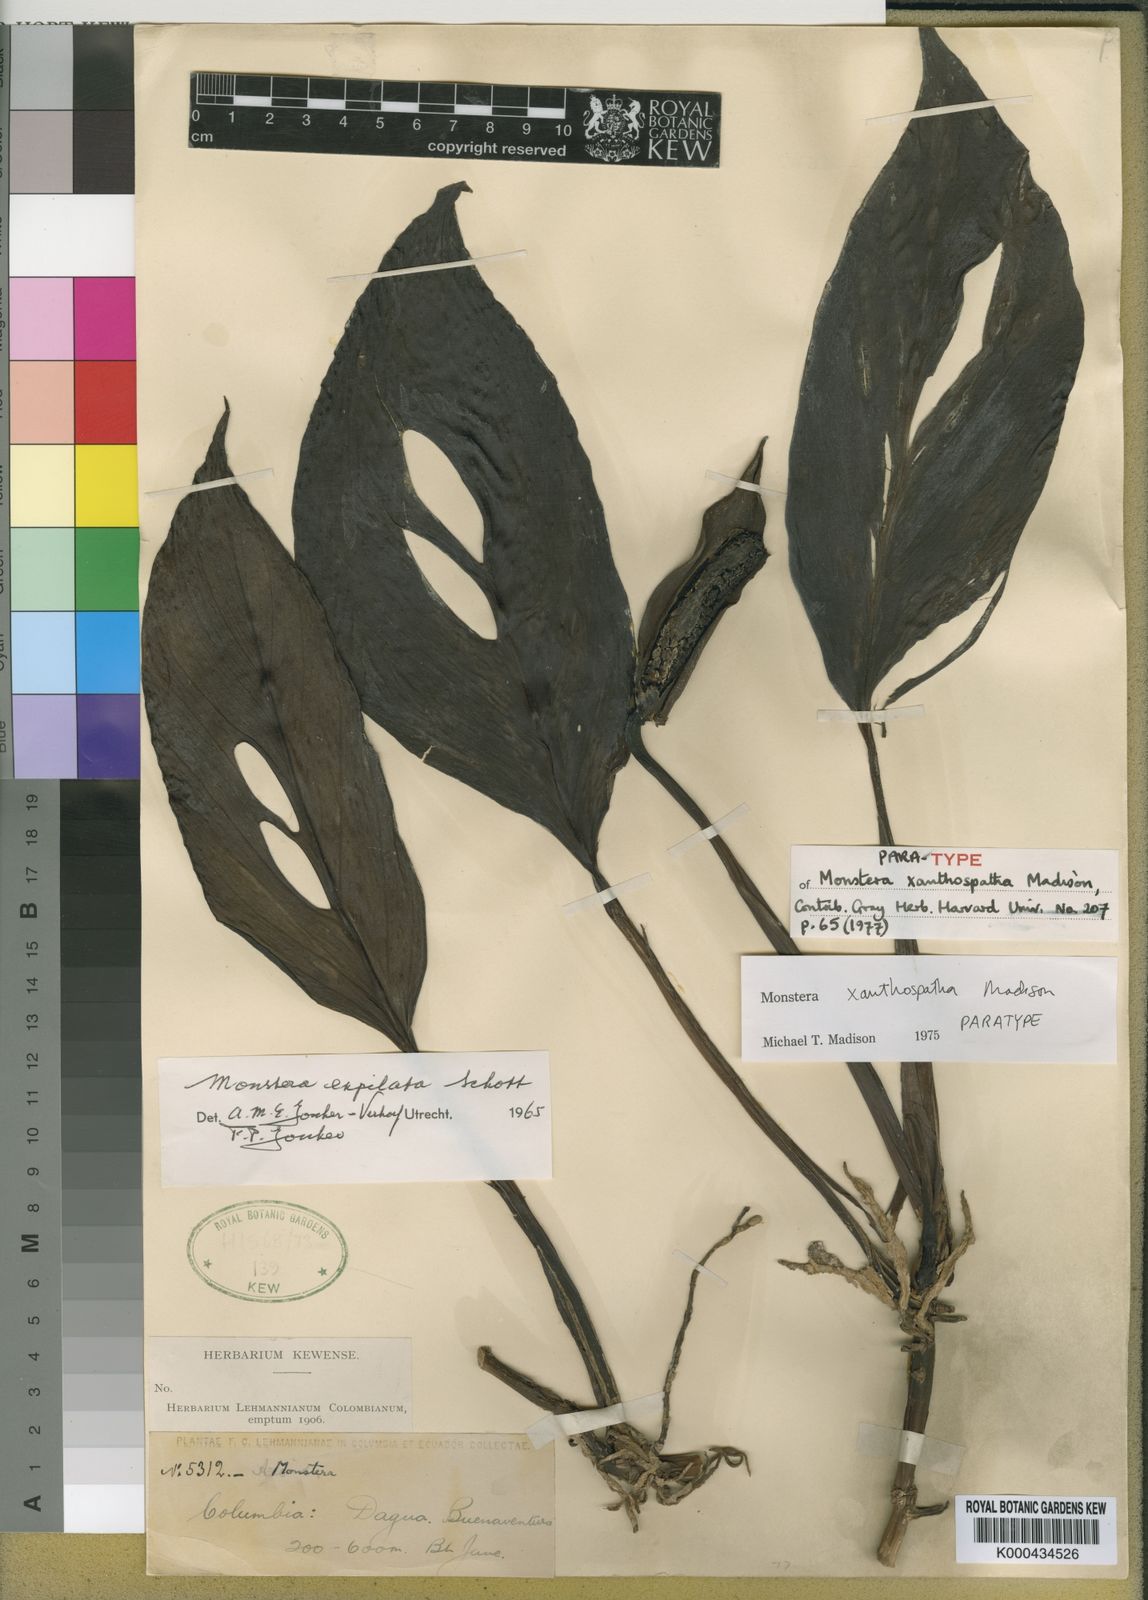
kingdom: Plantae
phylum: Tracheophyta
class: Liliopsida
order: Alismatales
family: Araceae
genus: Monstera
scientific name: Monstera xanthospatha
